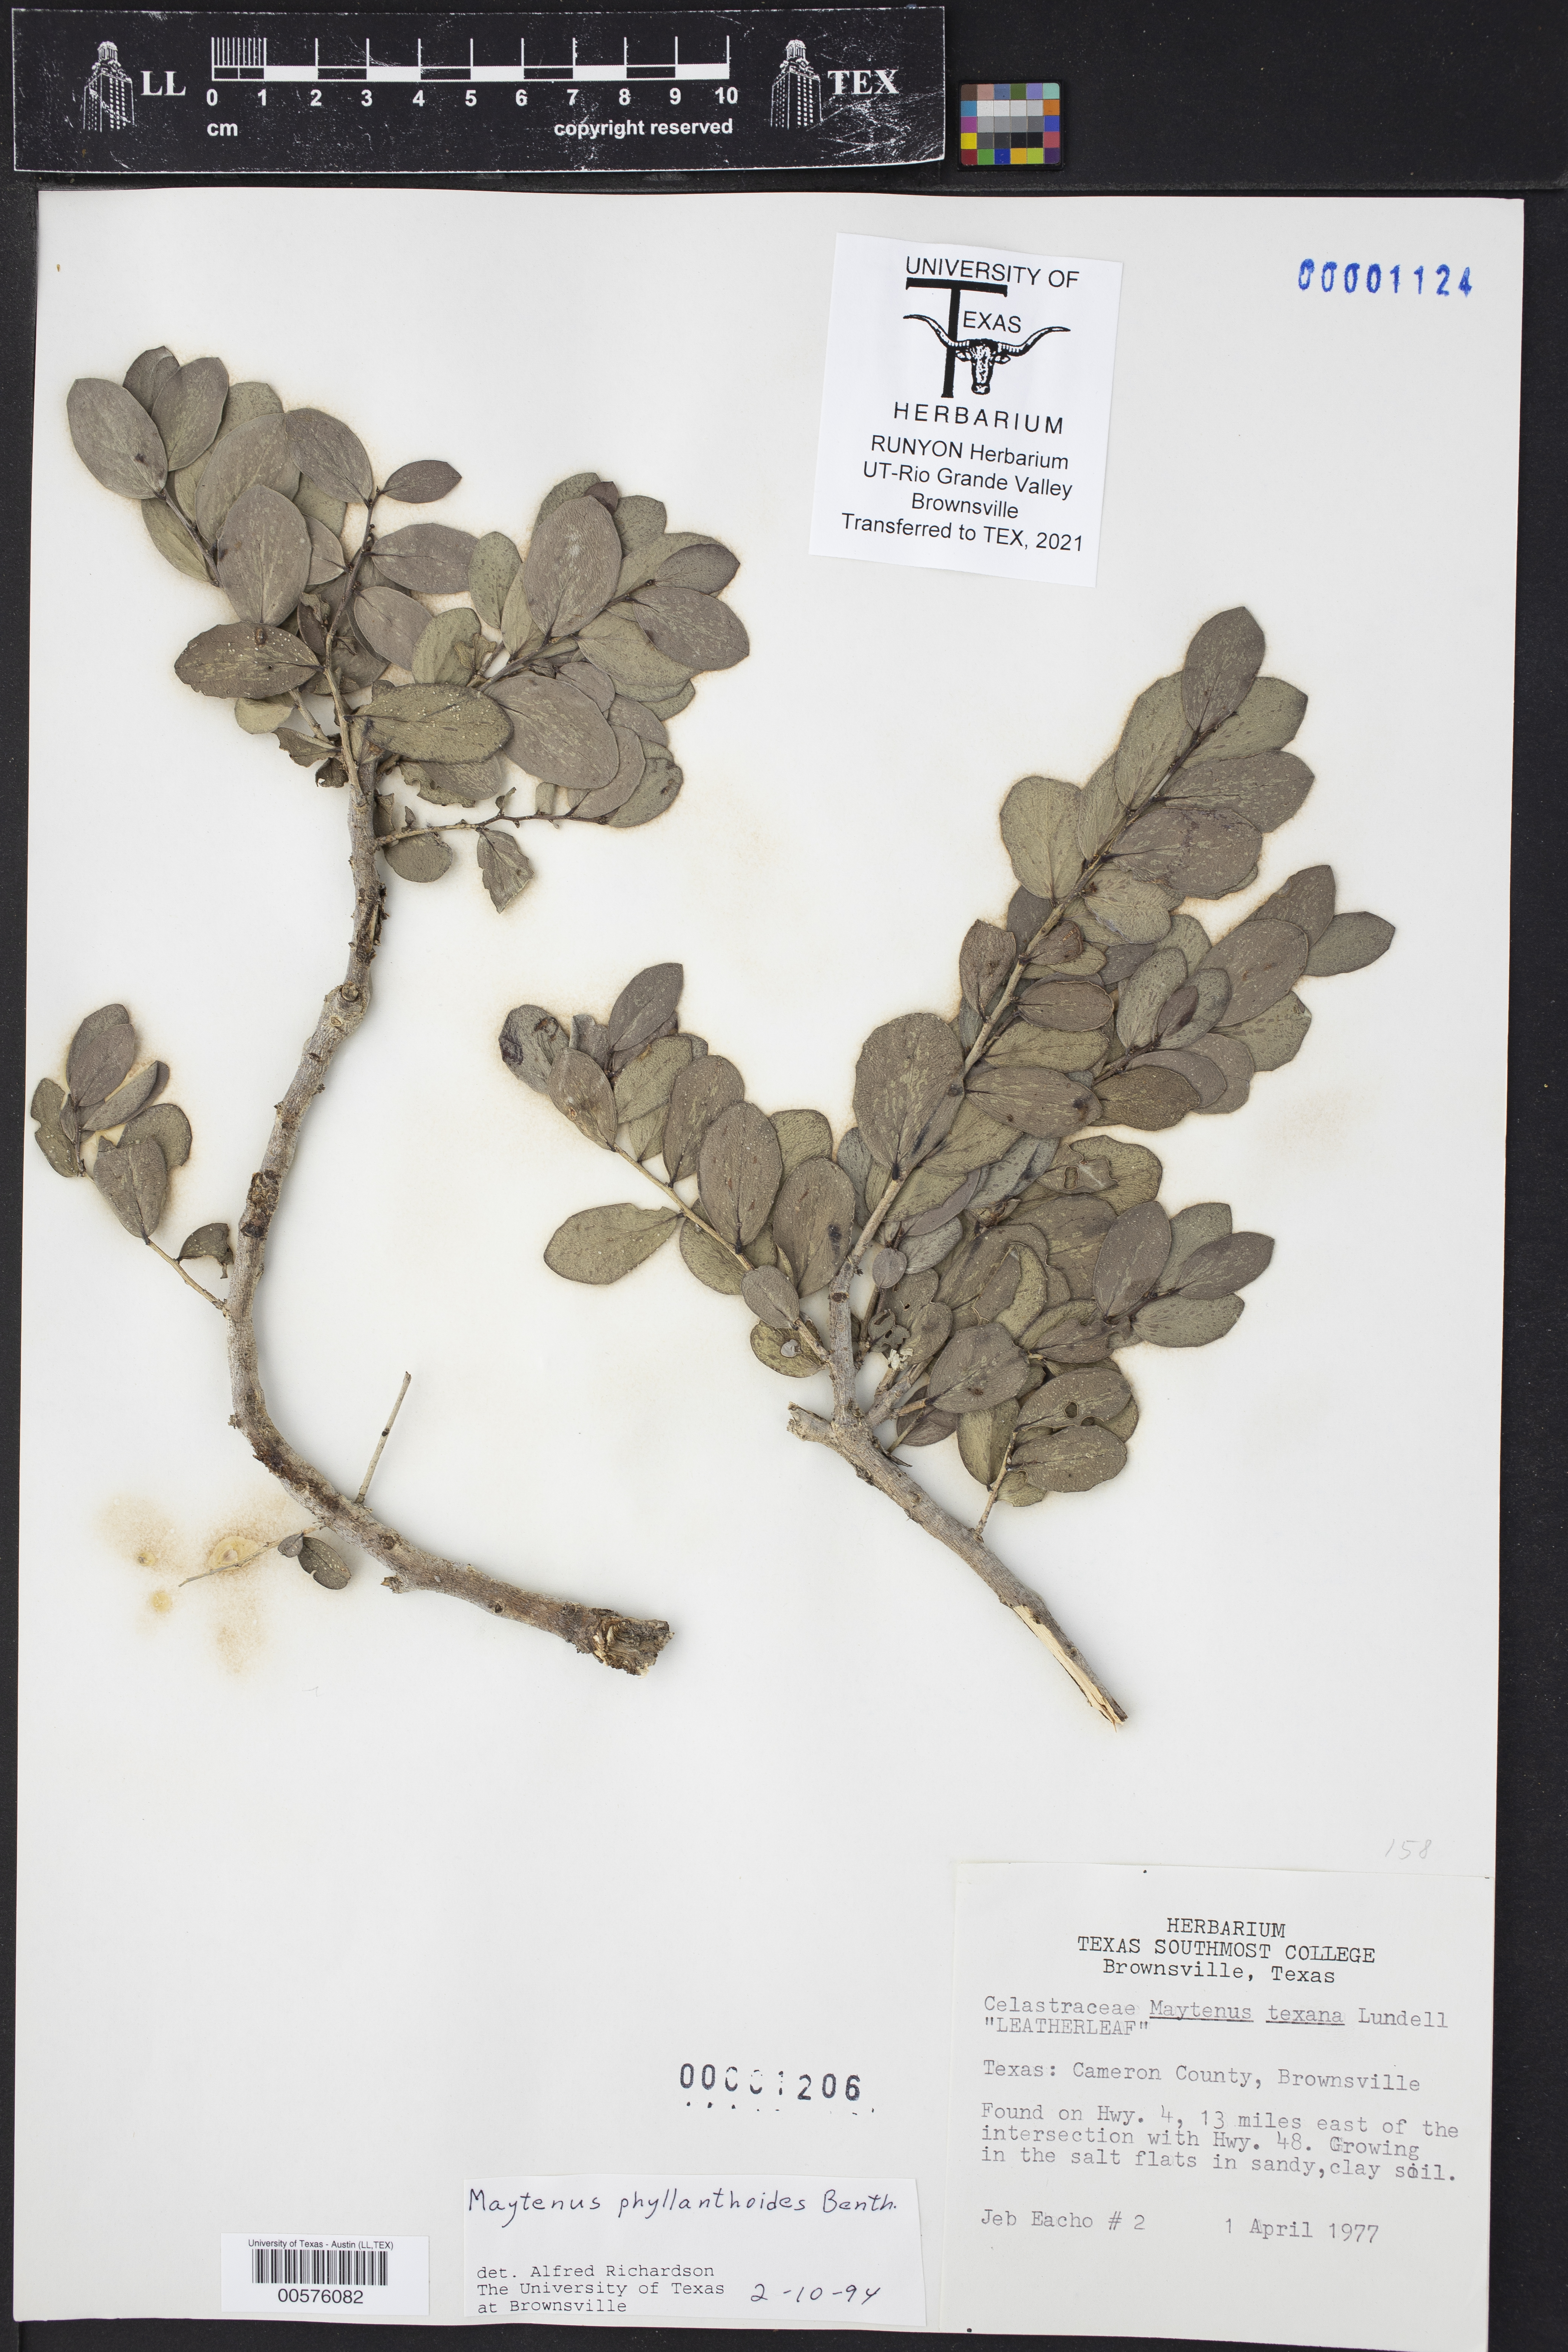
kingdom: Plantae
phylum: Tracheophyta
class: Magnoliopsida
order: Celastrales
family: Celastraceae
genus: Tricerma
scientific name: Tricerma phyllanthoides
